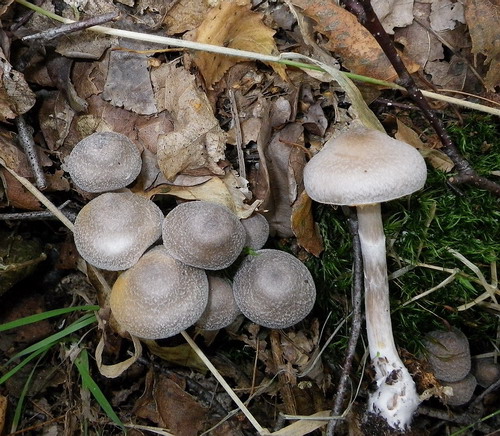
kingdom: Fungi
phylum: Basidiomycota
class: Agaricomycetes
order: Agaricales
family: Cortinariaceae
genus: Cortinarius
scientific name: Cortinarius hemitrichus
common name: hvidfnugget slørhat
